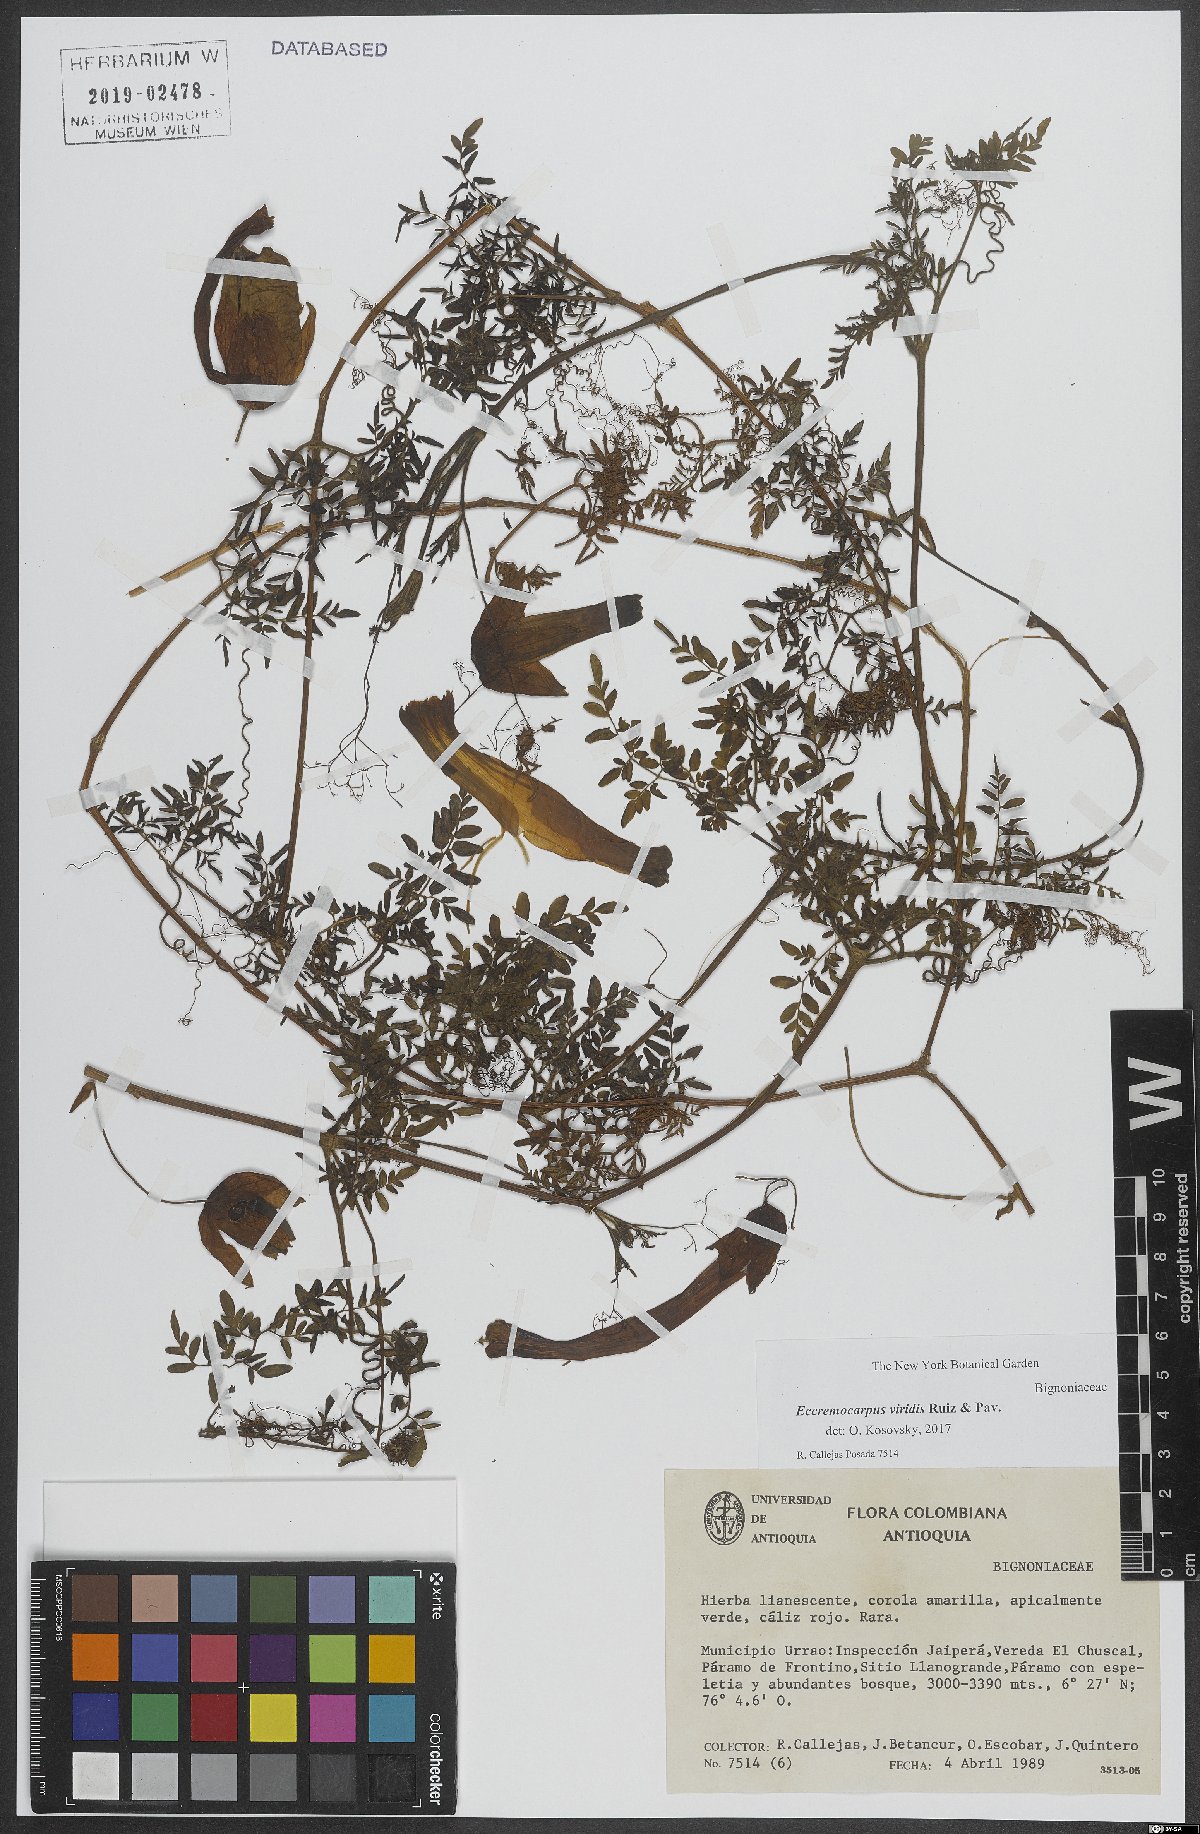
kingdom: Plantae
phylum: Tracheophyta
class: Magnoliopsida
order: Lamiales
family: Bignoniaceae
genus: Eccremocarpus
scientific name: Eccremocarpus viridis
